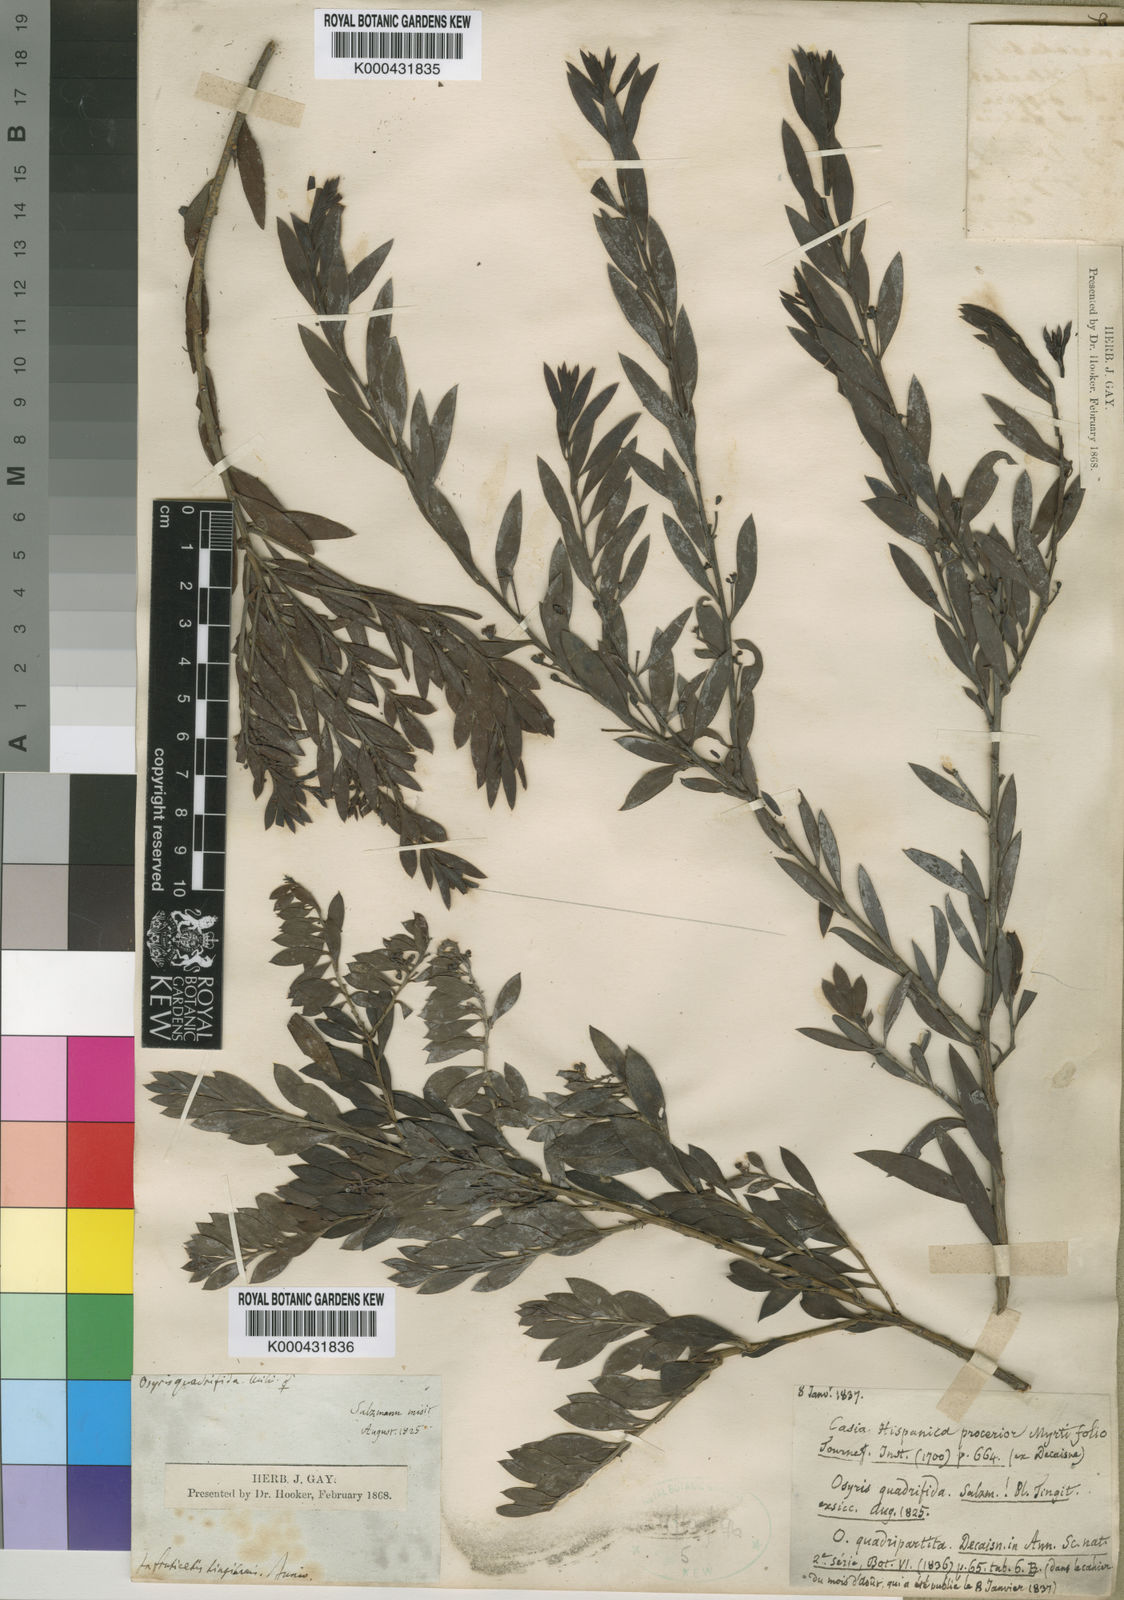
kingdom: Plantae
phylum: Tracheophyta
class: Magnoliopsida
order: Santalales
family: Santalaceae
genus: Osyris
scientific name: Osyris lanceolata
